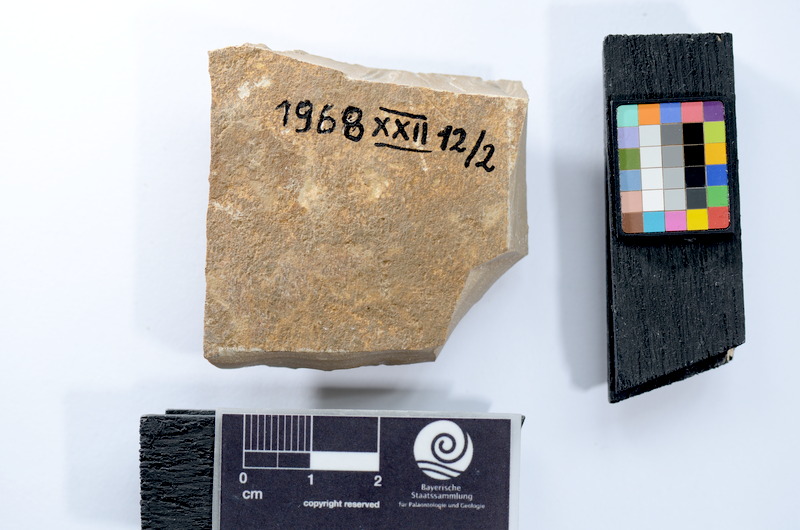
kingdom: Animalia
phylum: Chordata
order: Elopiformes
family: Anaethalionidae
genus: Anaethalion
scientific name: Anaethalion
